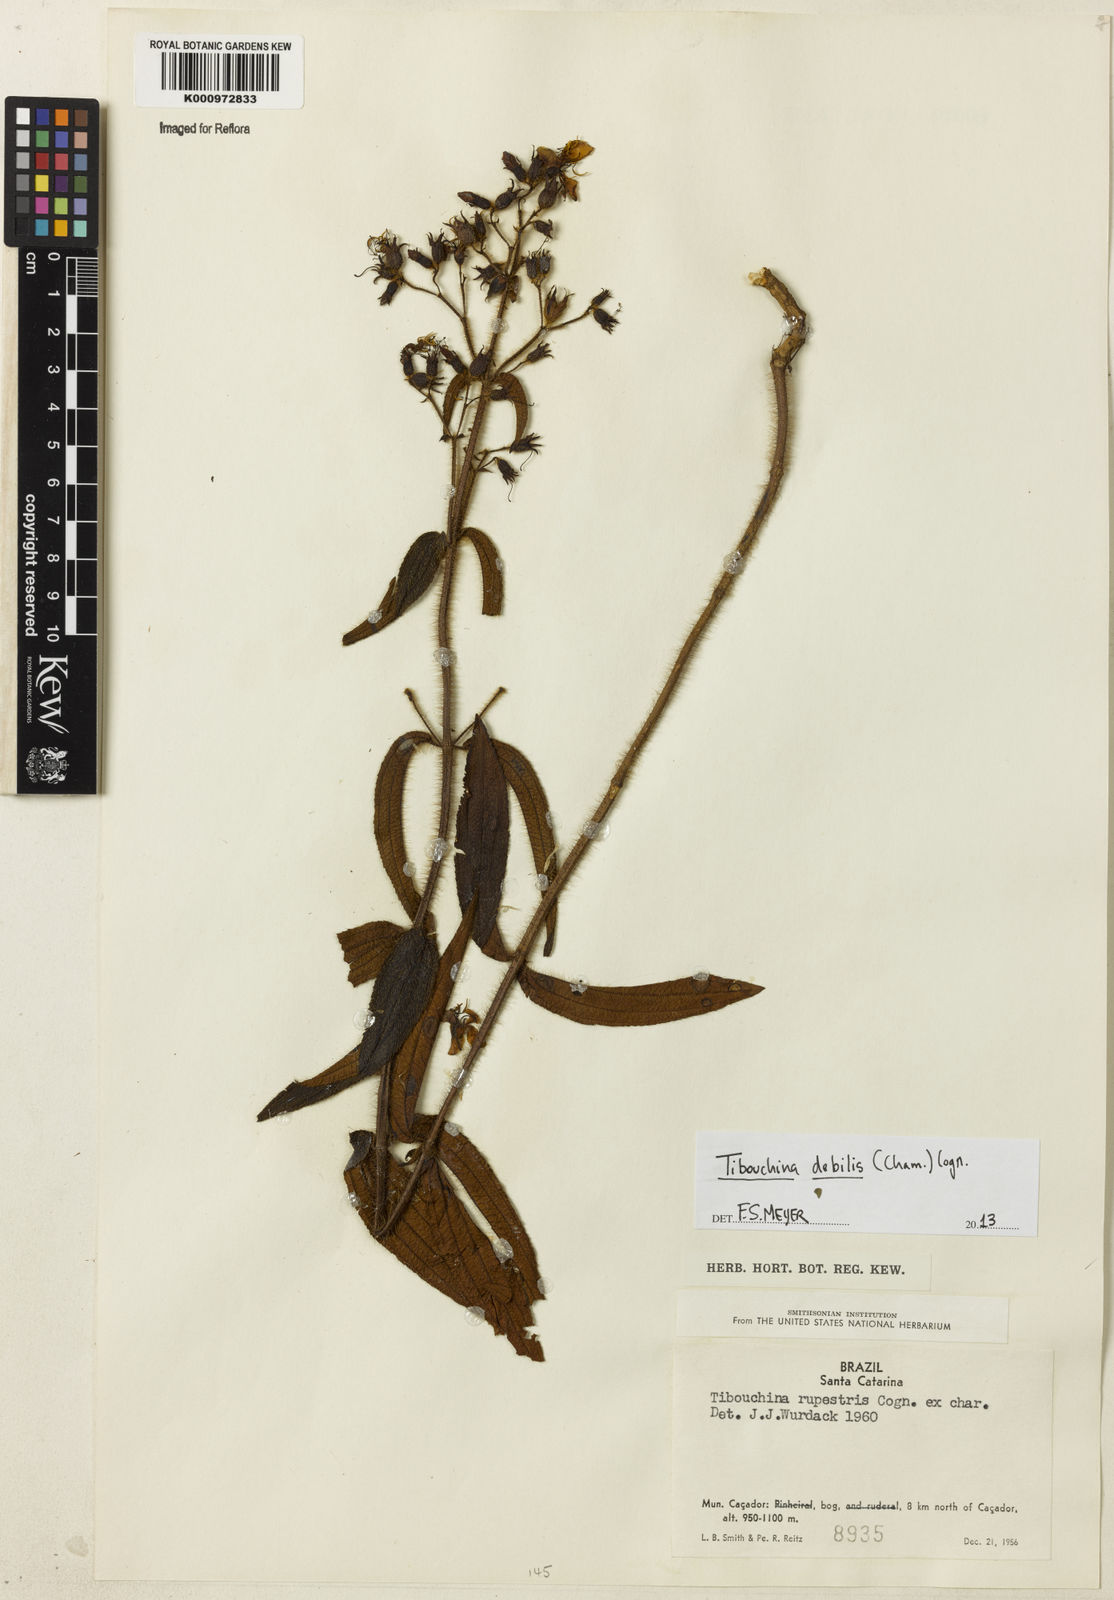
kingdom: Plantae
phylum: Tracheophyta
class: Magnoliopsida
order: Myrtales
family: Melastomataceae
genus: Chaetogastra
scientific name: Chaetogastra debilis
